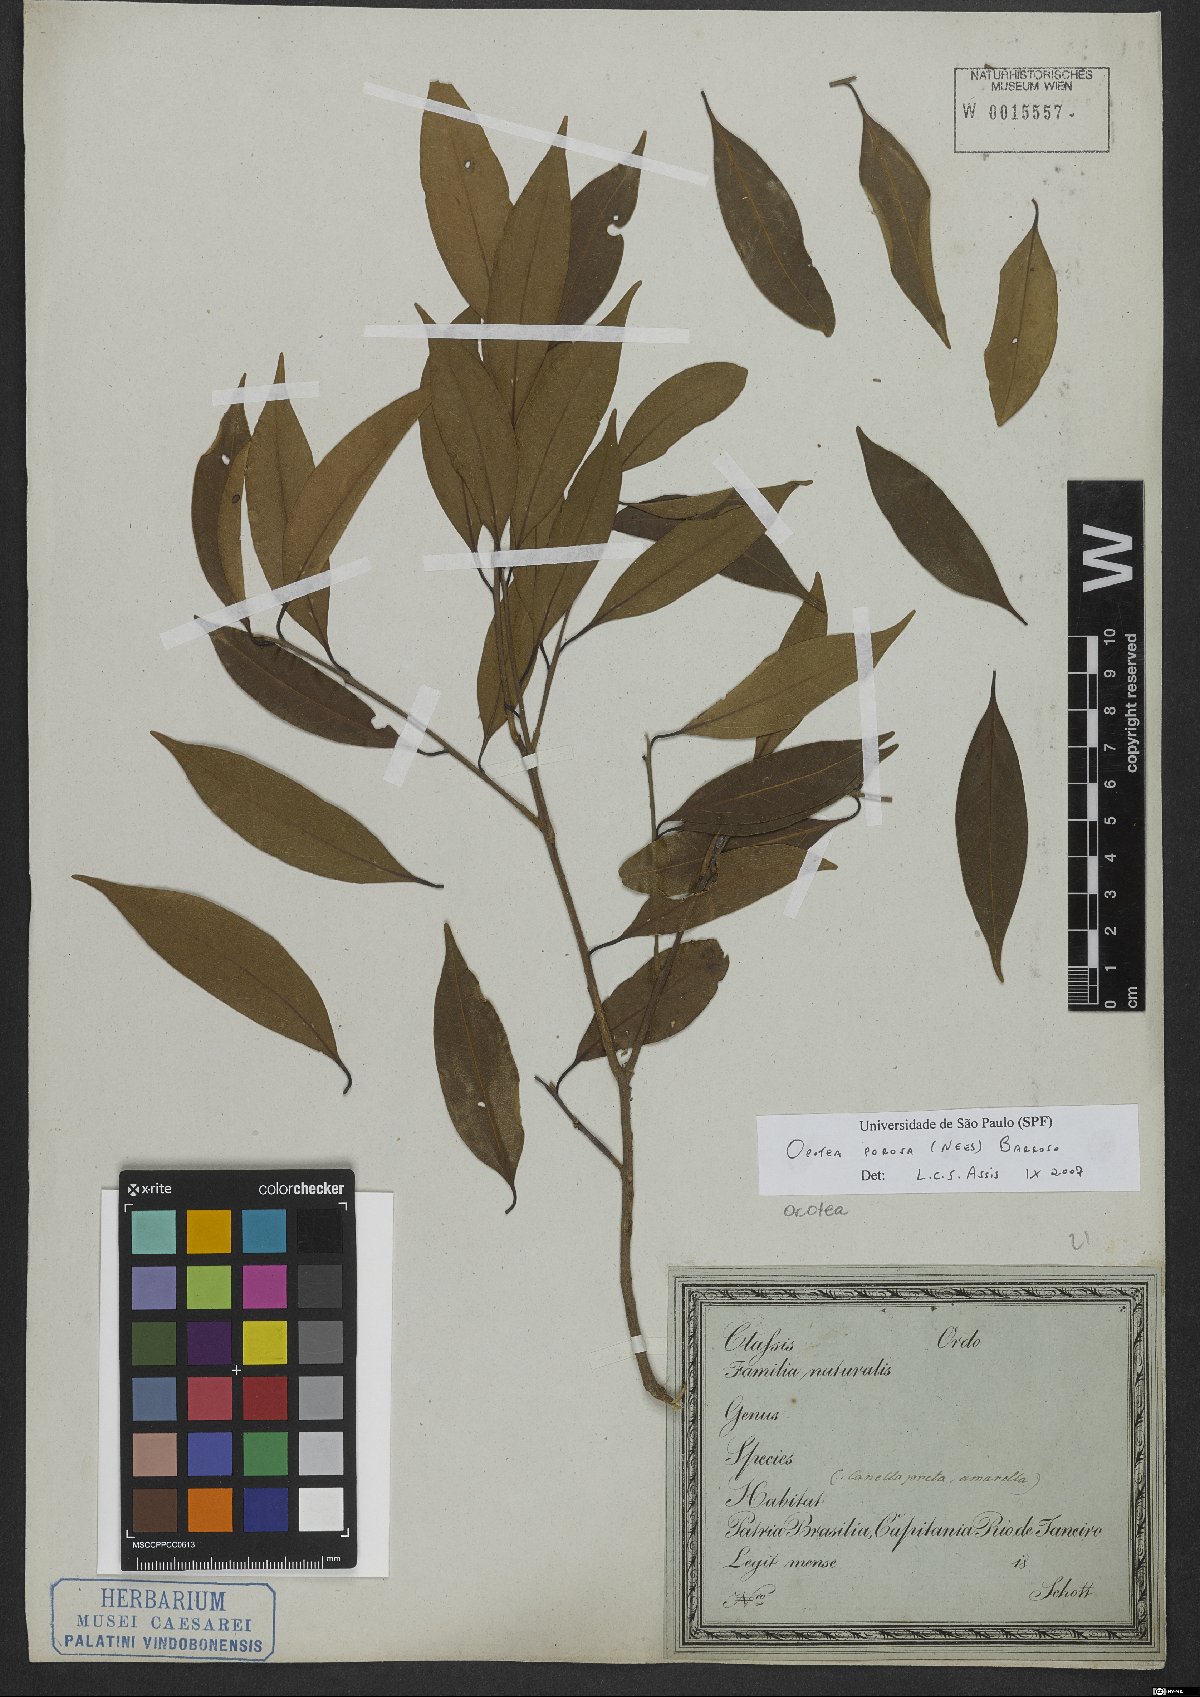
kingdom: Plantae
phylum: Tracheophyta
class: Magnoliopsida
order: Laurales
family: Lauraceae
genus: Ocotea
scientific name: Ocotea porosa
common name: Brazilian-walnut
